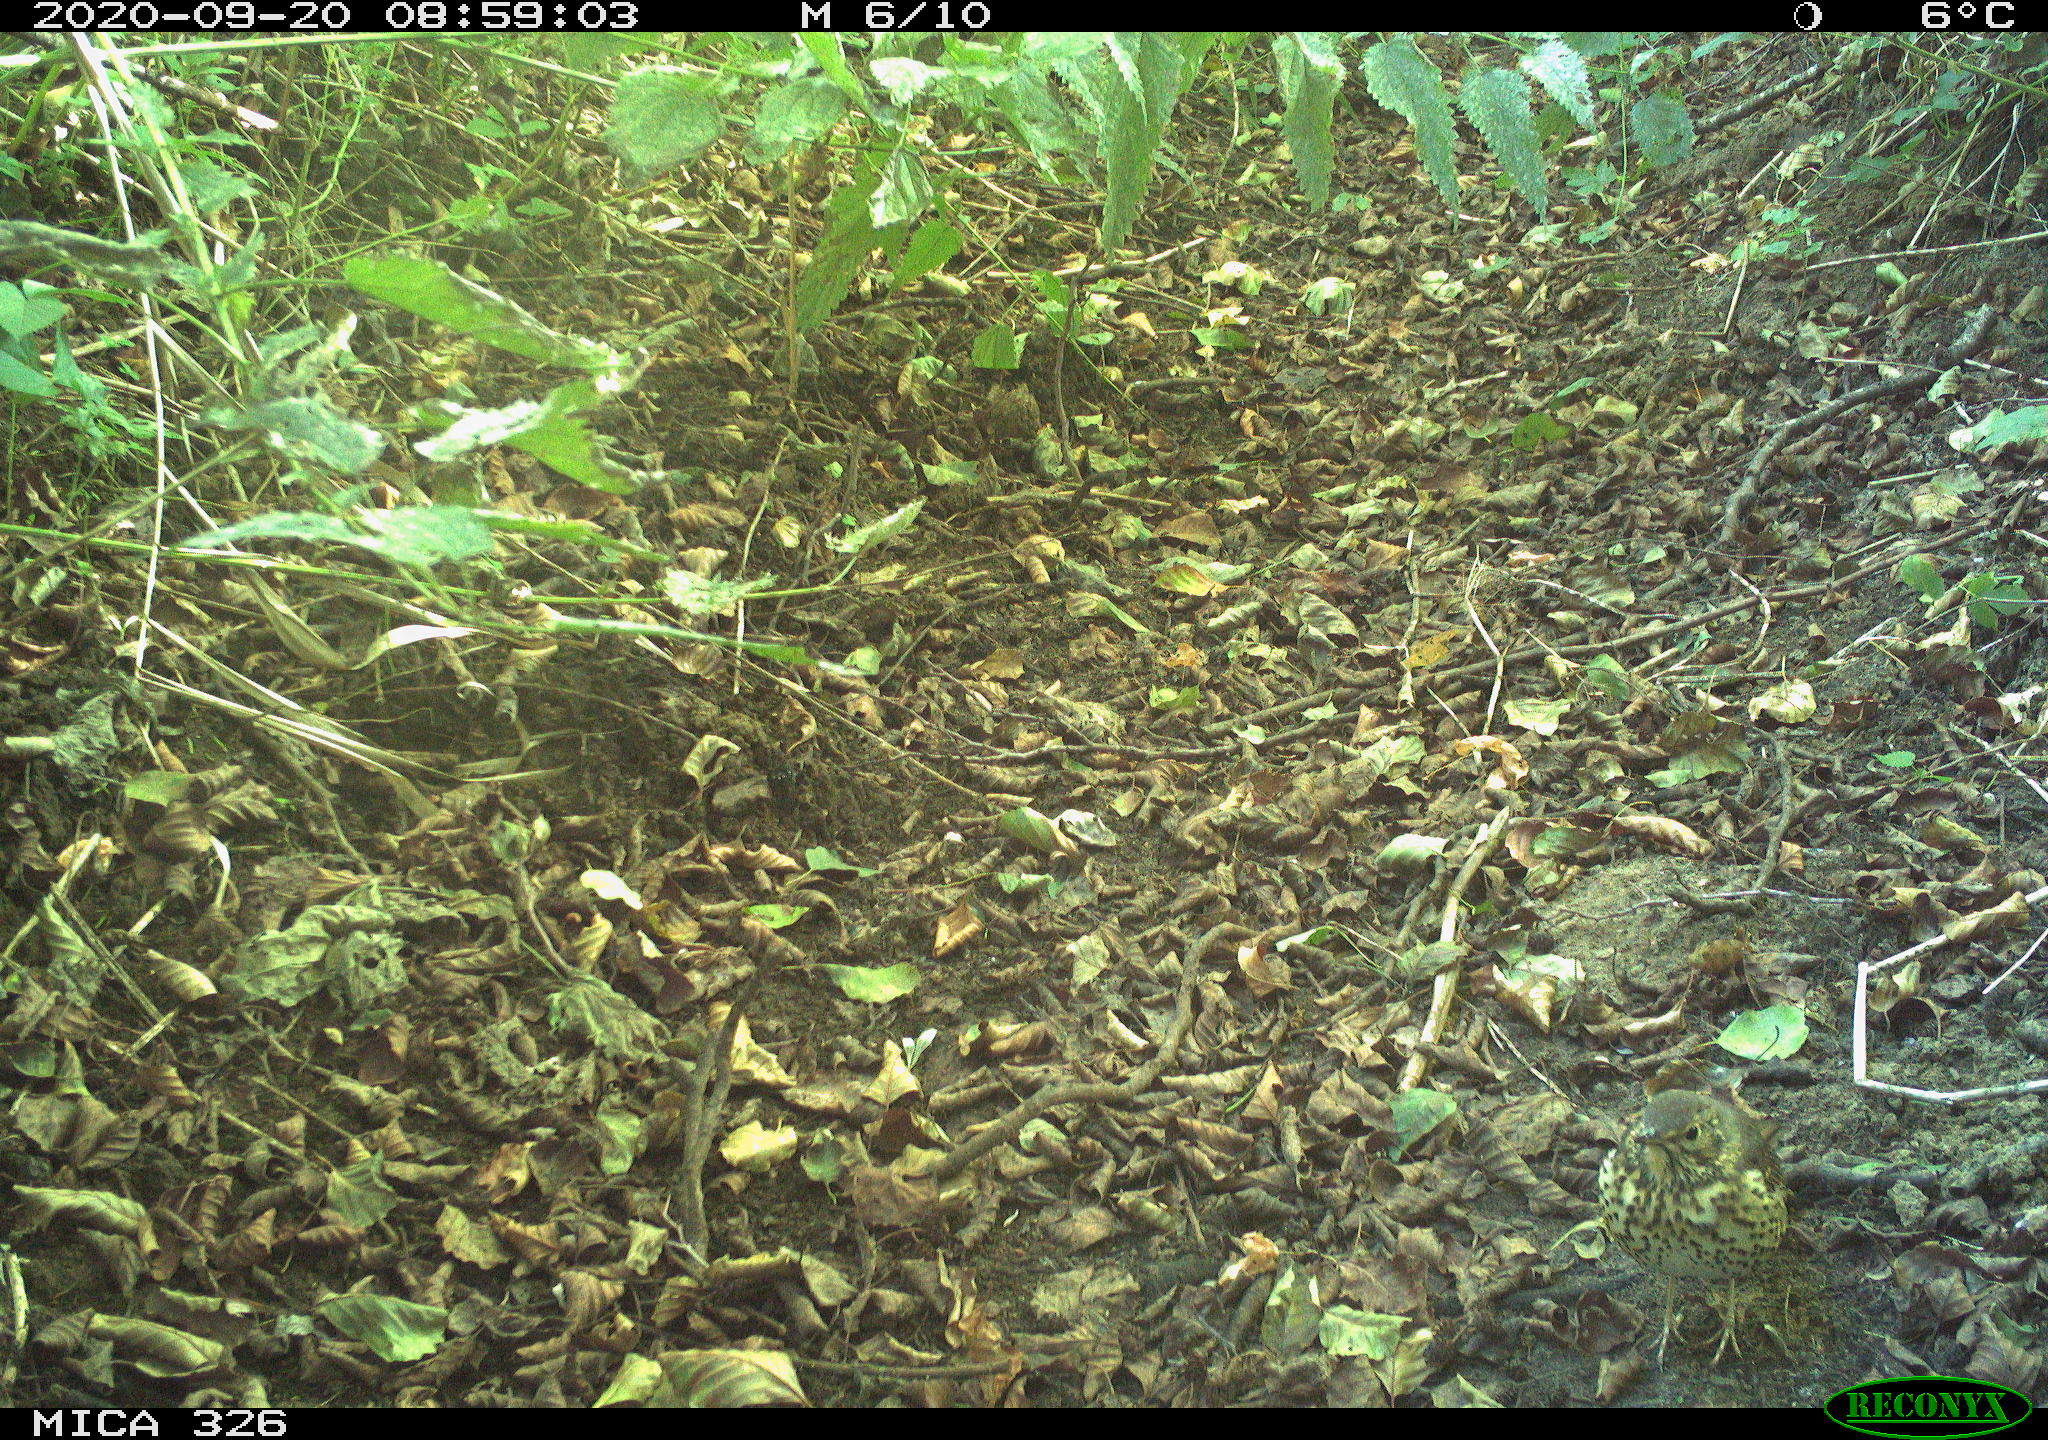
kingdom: Animalia
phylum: Chordata
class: Aves
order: Passeriformes
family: Turdidae
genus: Turdus
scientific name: Turdus philomelos
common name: Song thrush
